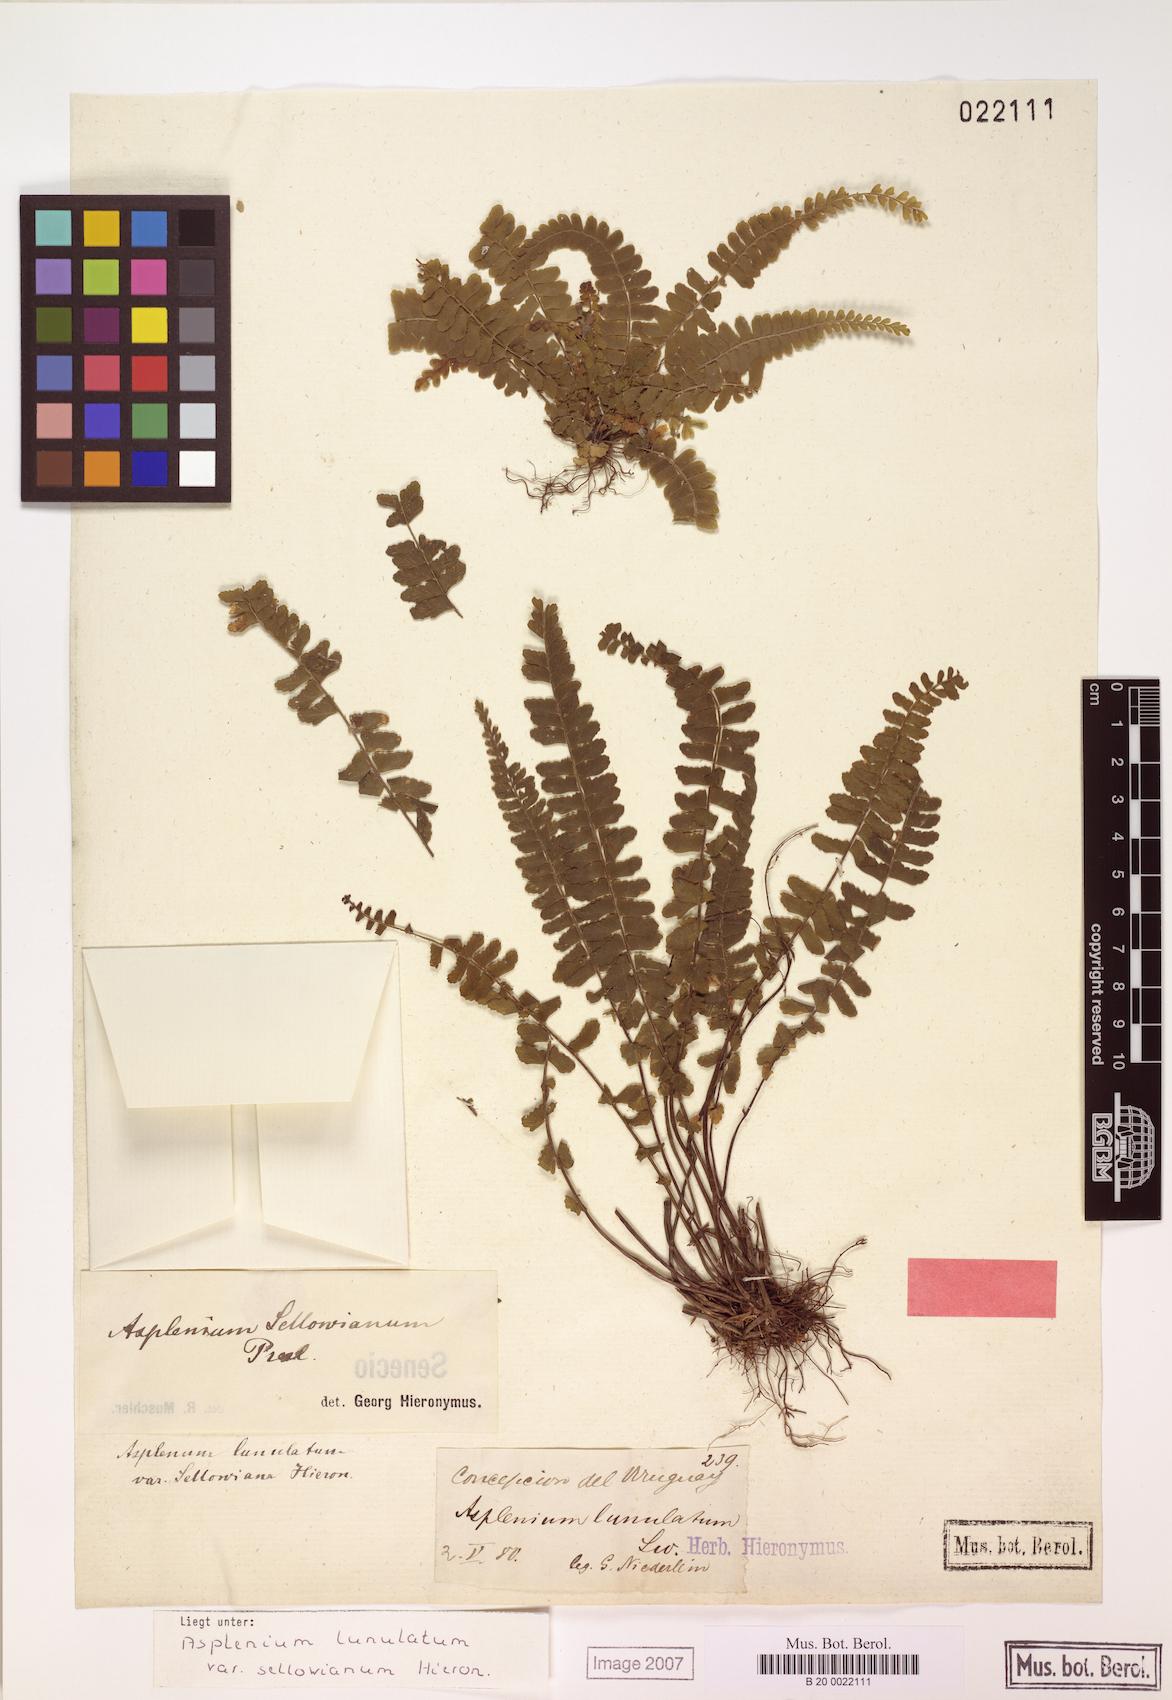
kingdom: Plantae
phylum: Tracheophyta
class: Polypodiopsida
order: Polypodiales
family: Aspleniaceae
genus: Asplenium
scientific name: Asplenium sellowianum
